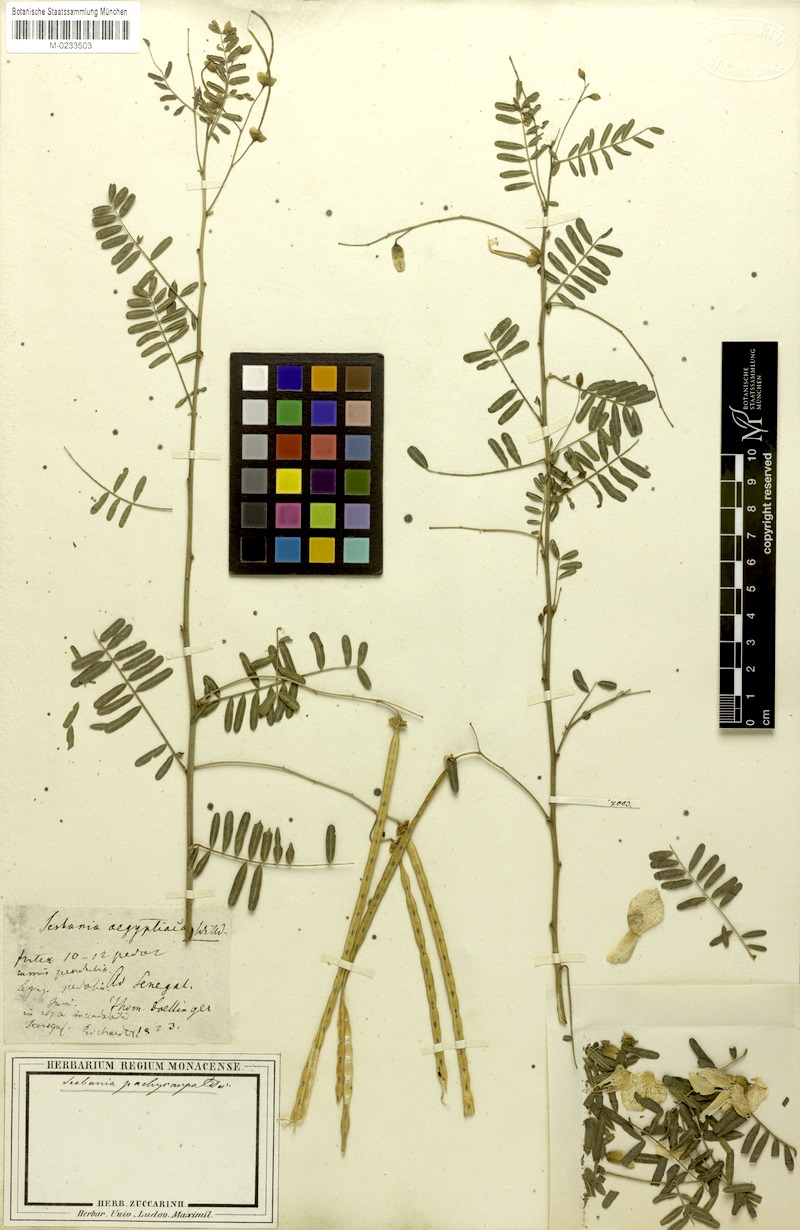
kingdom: Plantae
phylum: Tracheophyta
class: Magnoliopsida
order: Fabales
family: Fabaceae
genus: Sesbania
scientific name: Sesbania
